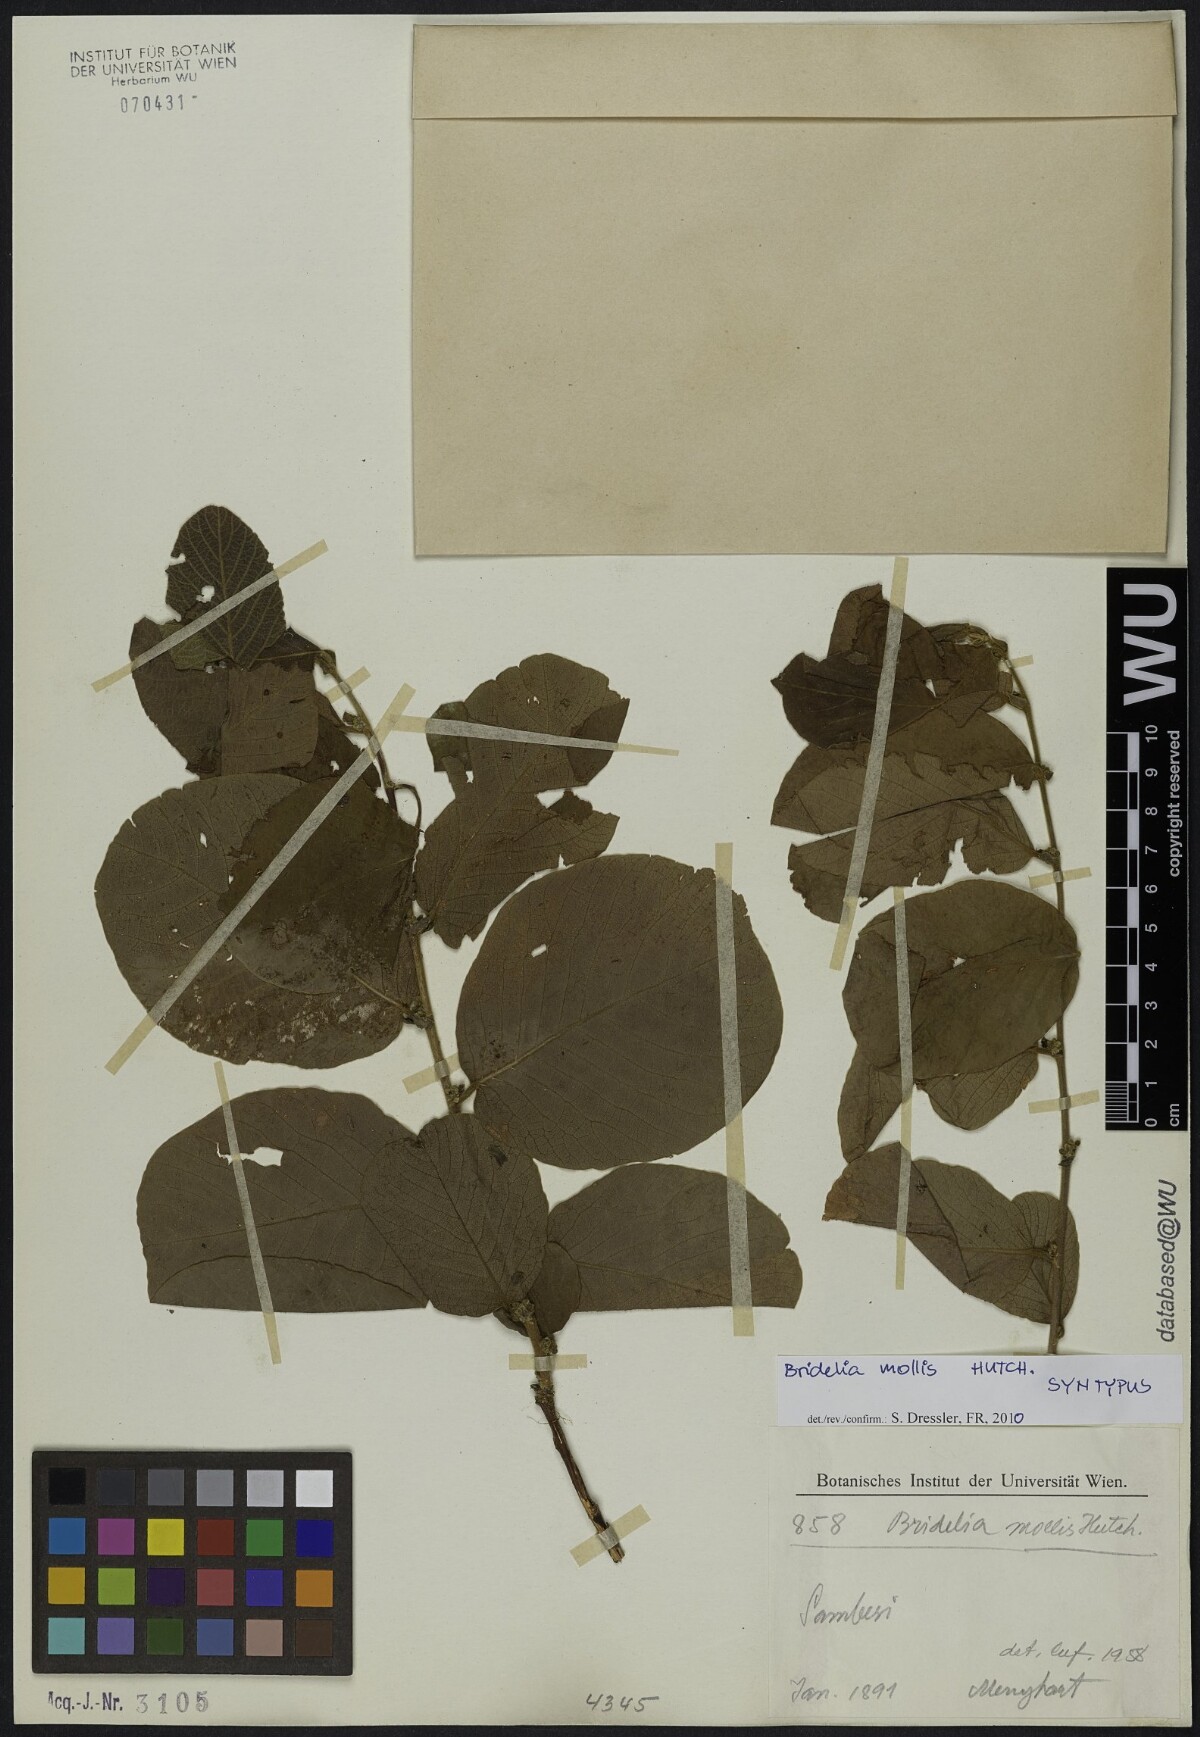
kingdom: Plantae
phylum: Tracheophyta
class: Magnoliopsida
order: Malpighiales
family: Phyllanthaceae
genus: Bridelia
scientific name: Bridelia mollis
